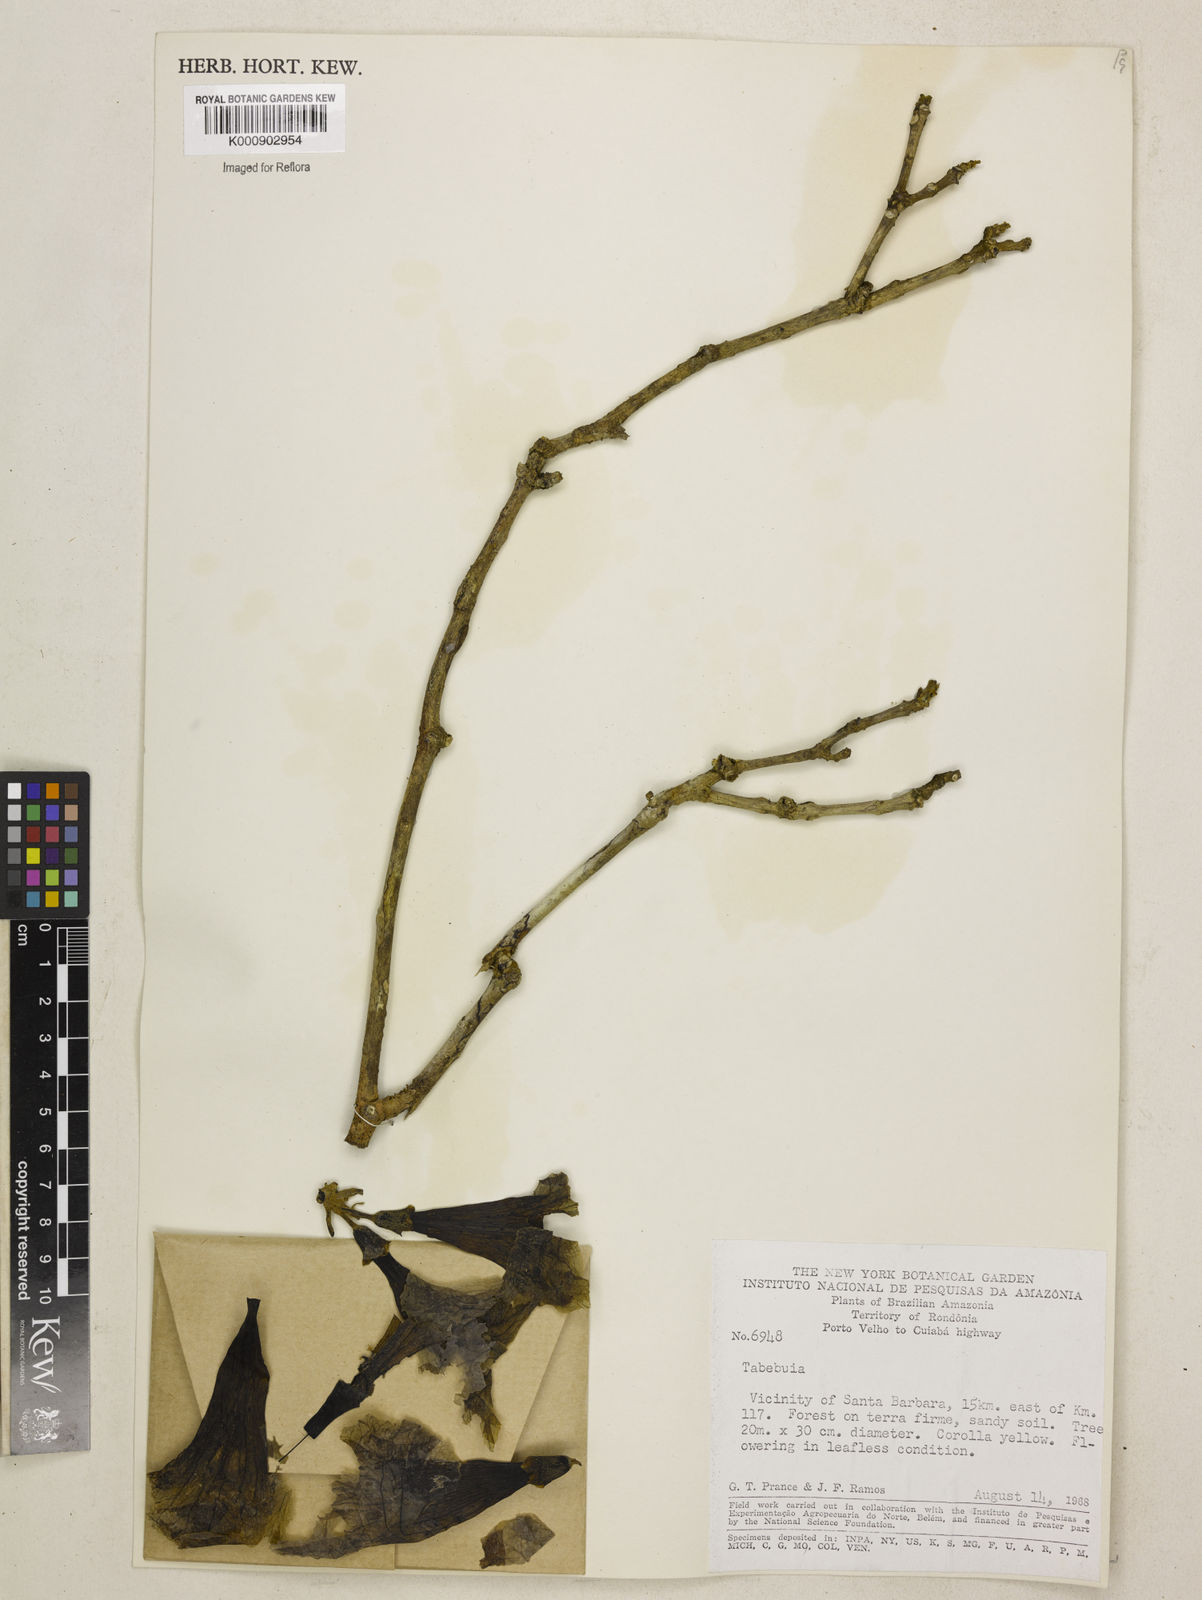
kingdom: Plantae
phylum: Tracheophyta
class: Magnoliopsida
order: Lamiales
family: Bignoniaceae
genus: Tabebuia
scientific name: Tabebuia
